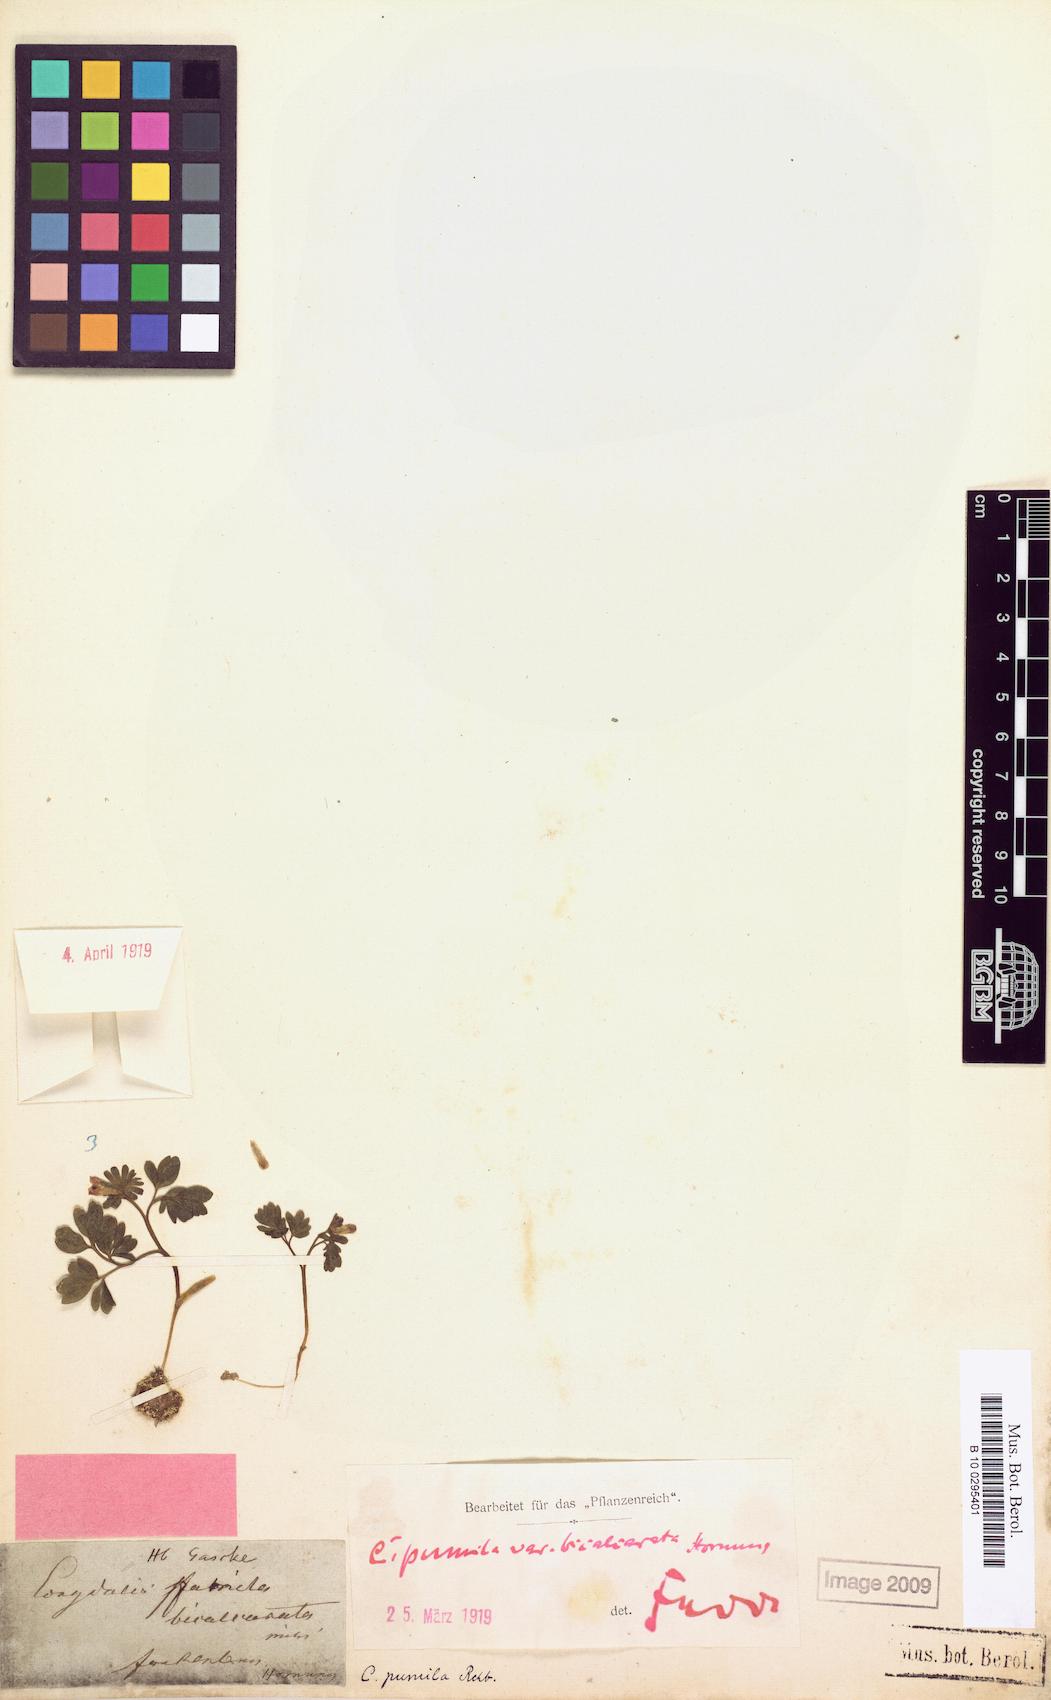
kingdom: Plantae
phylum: Tracheophyta
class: Magnoliopsida
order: Ranunculales
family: Papaveraceae
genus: Corydalis
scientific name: Corydalis pumila
